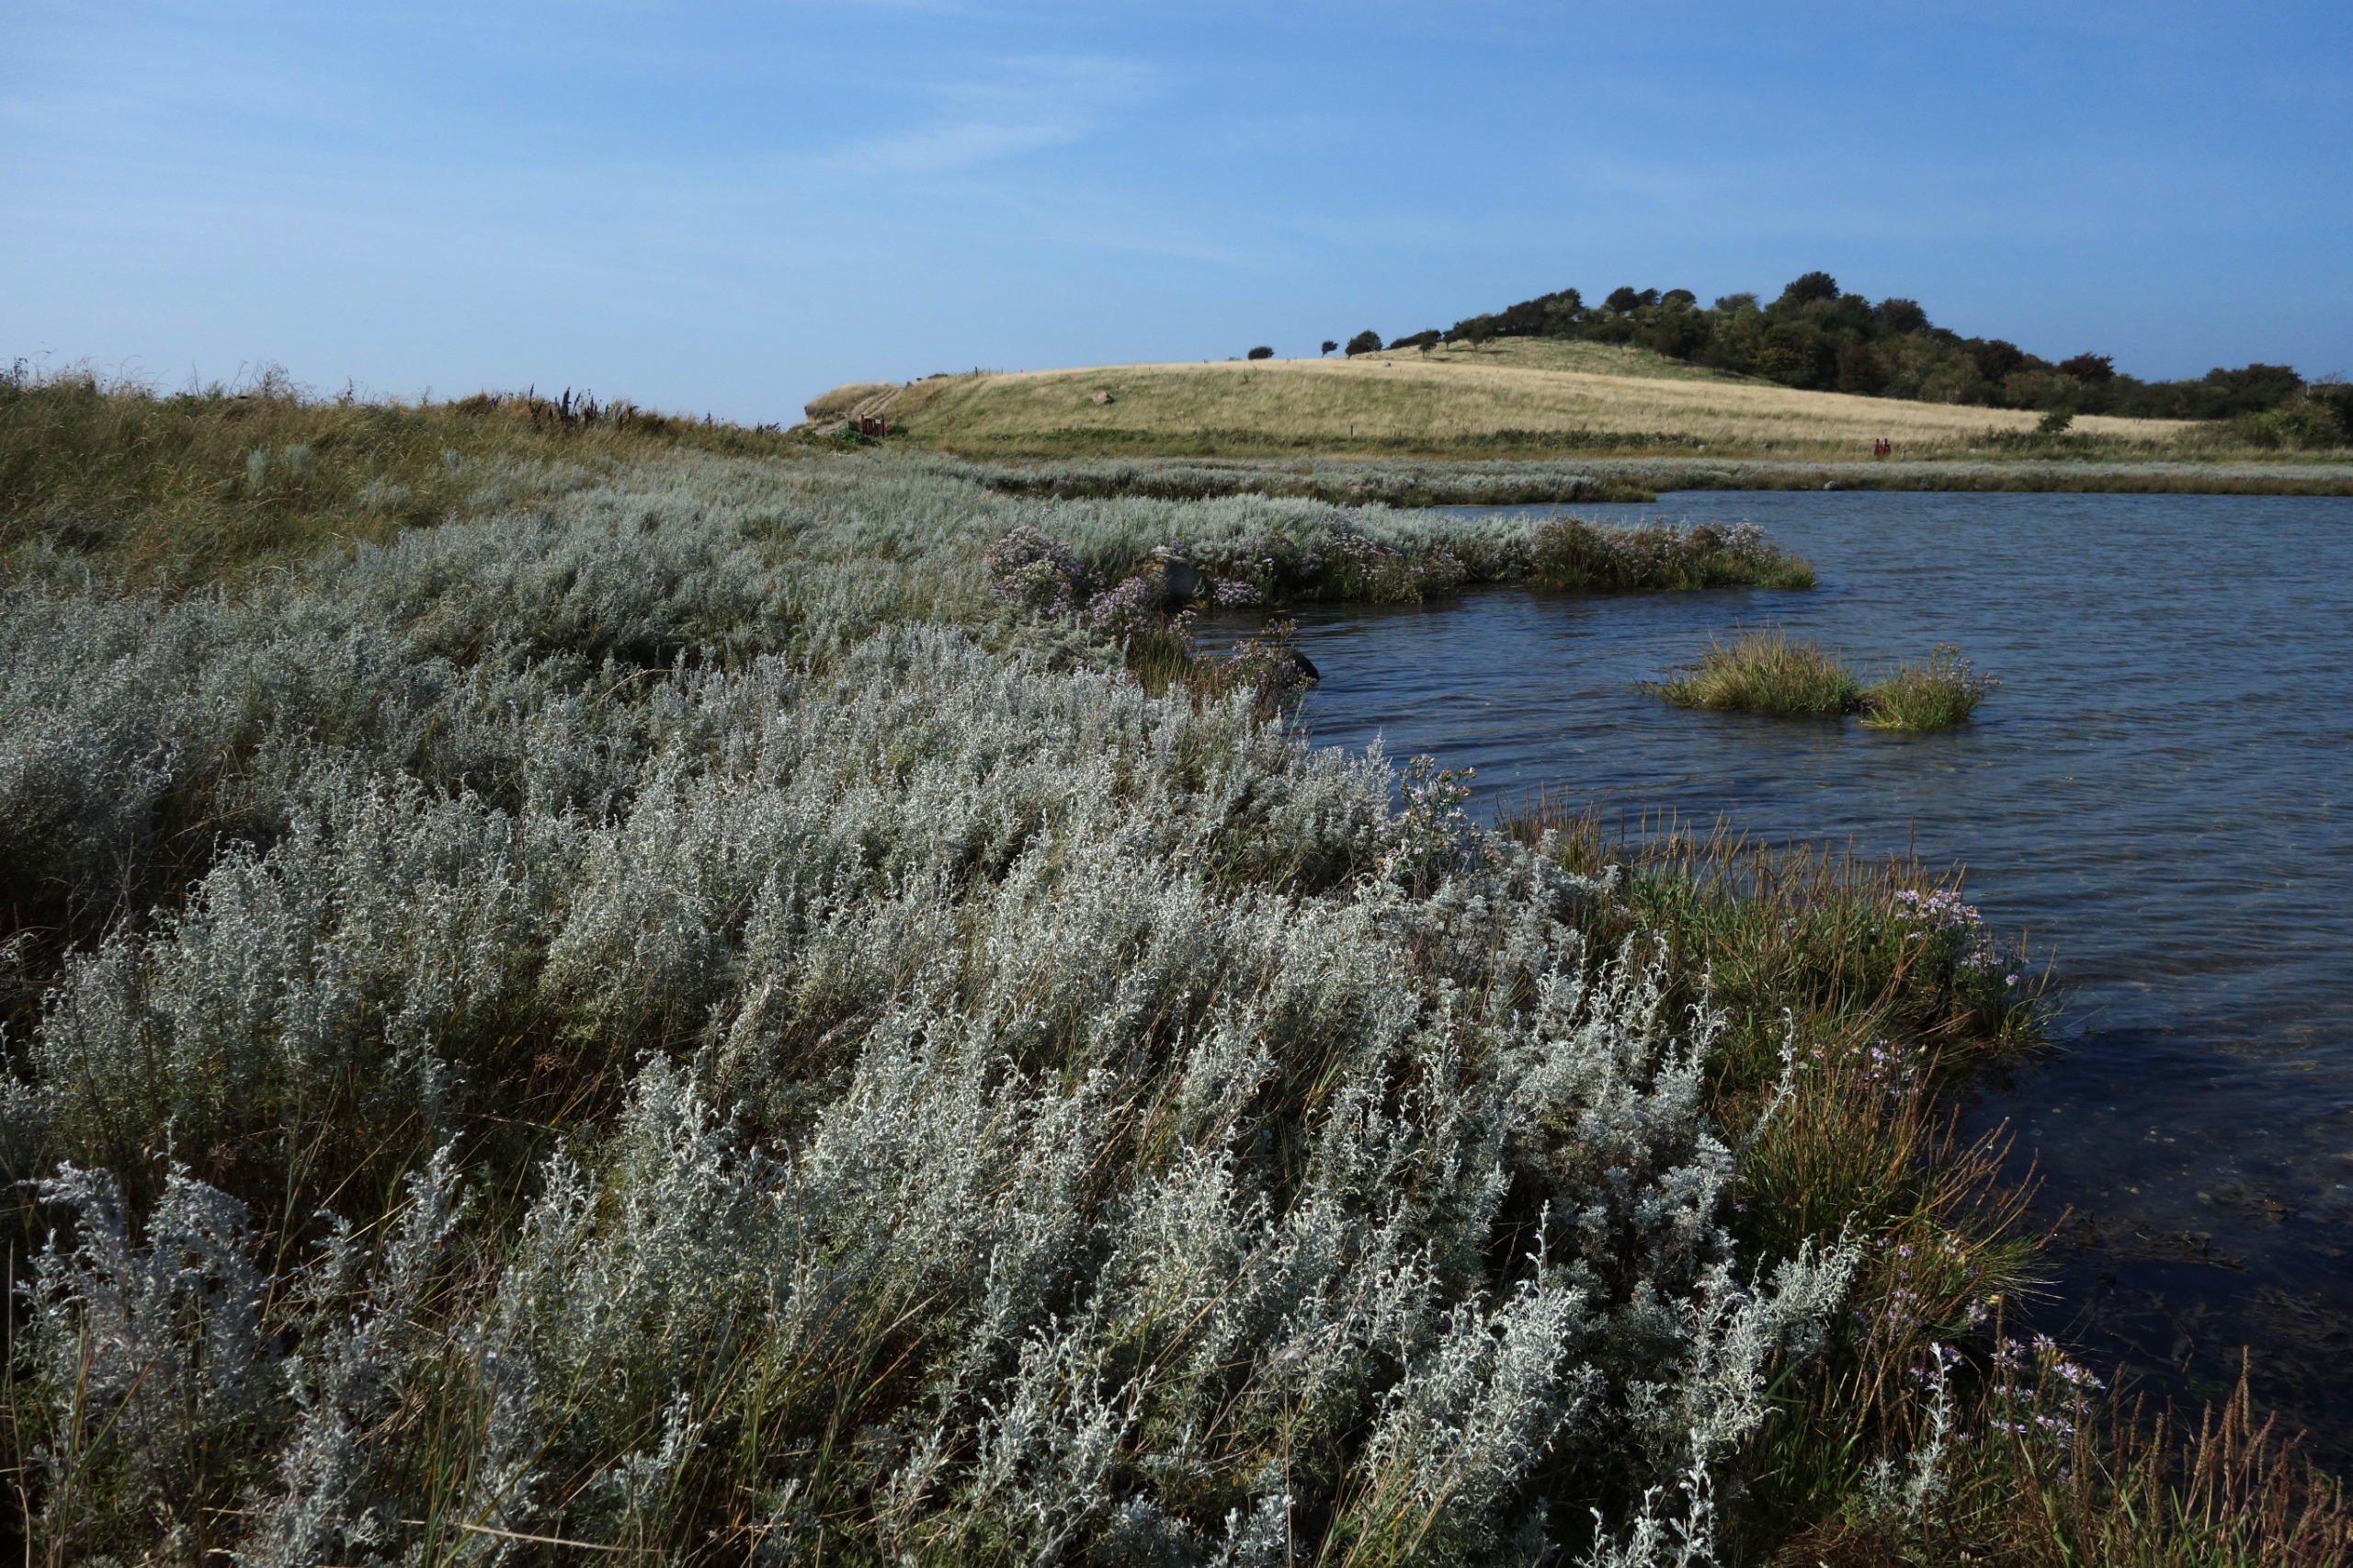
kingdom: Plantae
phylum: Tracheophyta
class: Magnoliopsida
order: Asterales
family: Asteraceae
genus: Artemisia
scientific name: Artemisia maritima
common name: Strandmalurt
